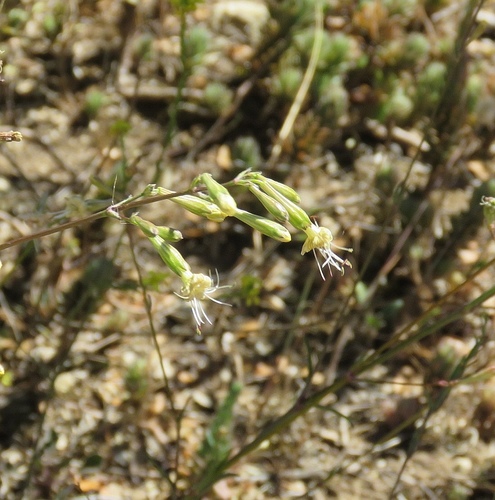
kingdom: Plantae
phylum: Tracheophyta
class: Magnoliopsida
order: Caryophyllales
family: Caryophyllaceae
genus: Silene
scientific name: Silene longicilia
